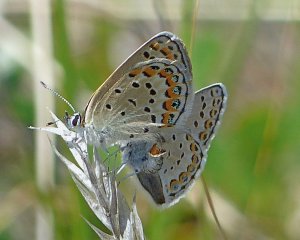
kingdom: Animalia
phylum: Arthropoda
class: Insecta
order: Lepidoptera
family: Lycaenidae
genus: Lycaeides
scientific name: Lycaeides melissa
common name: Melissa Blue
